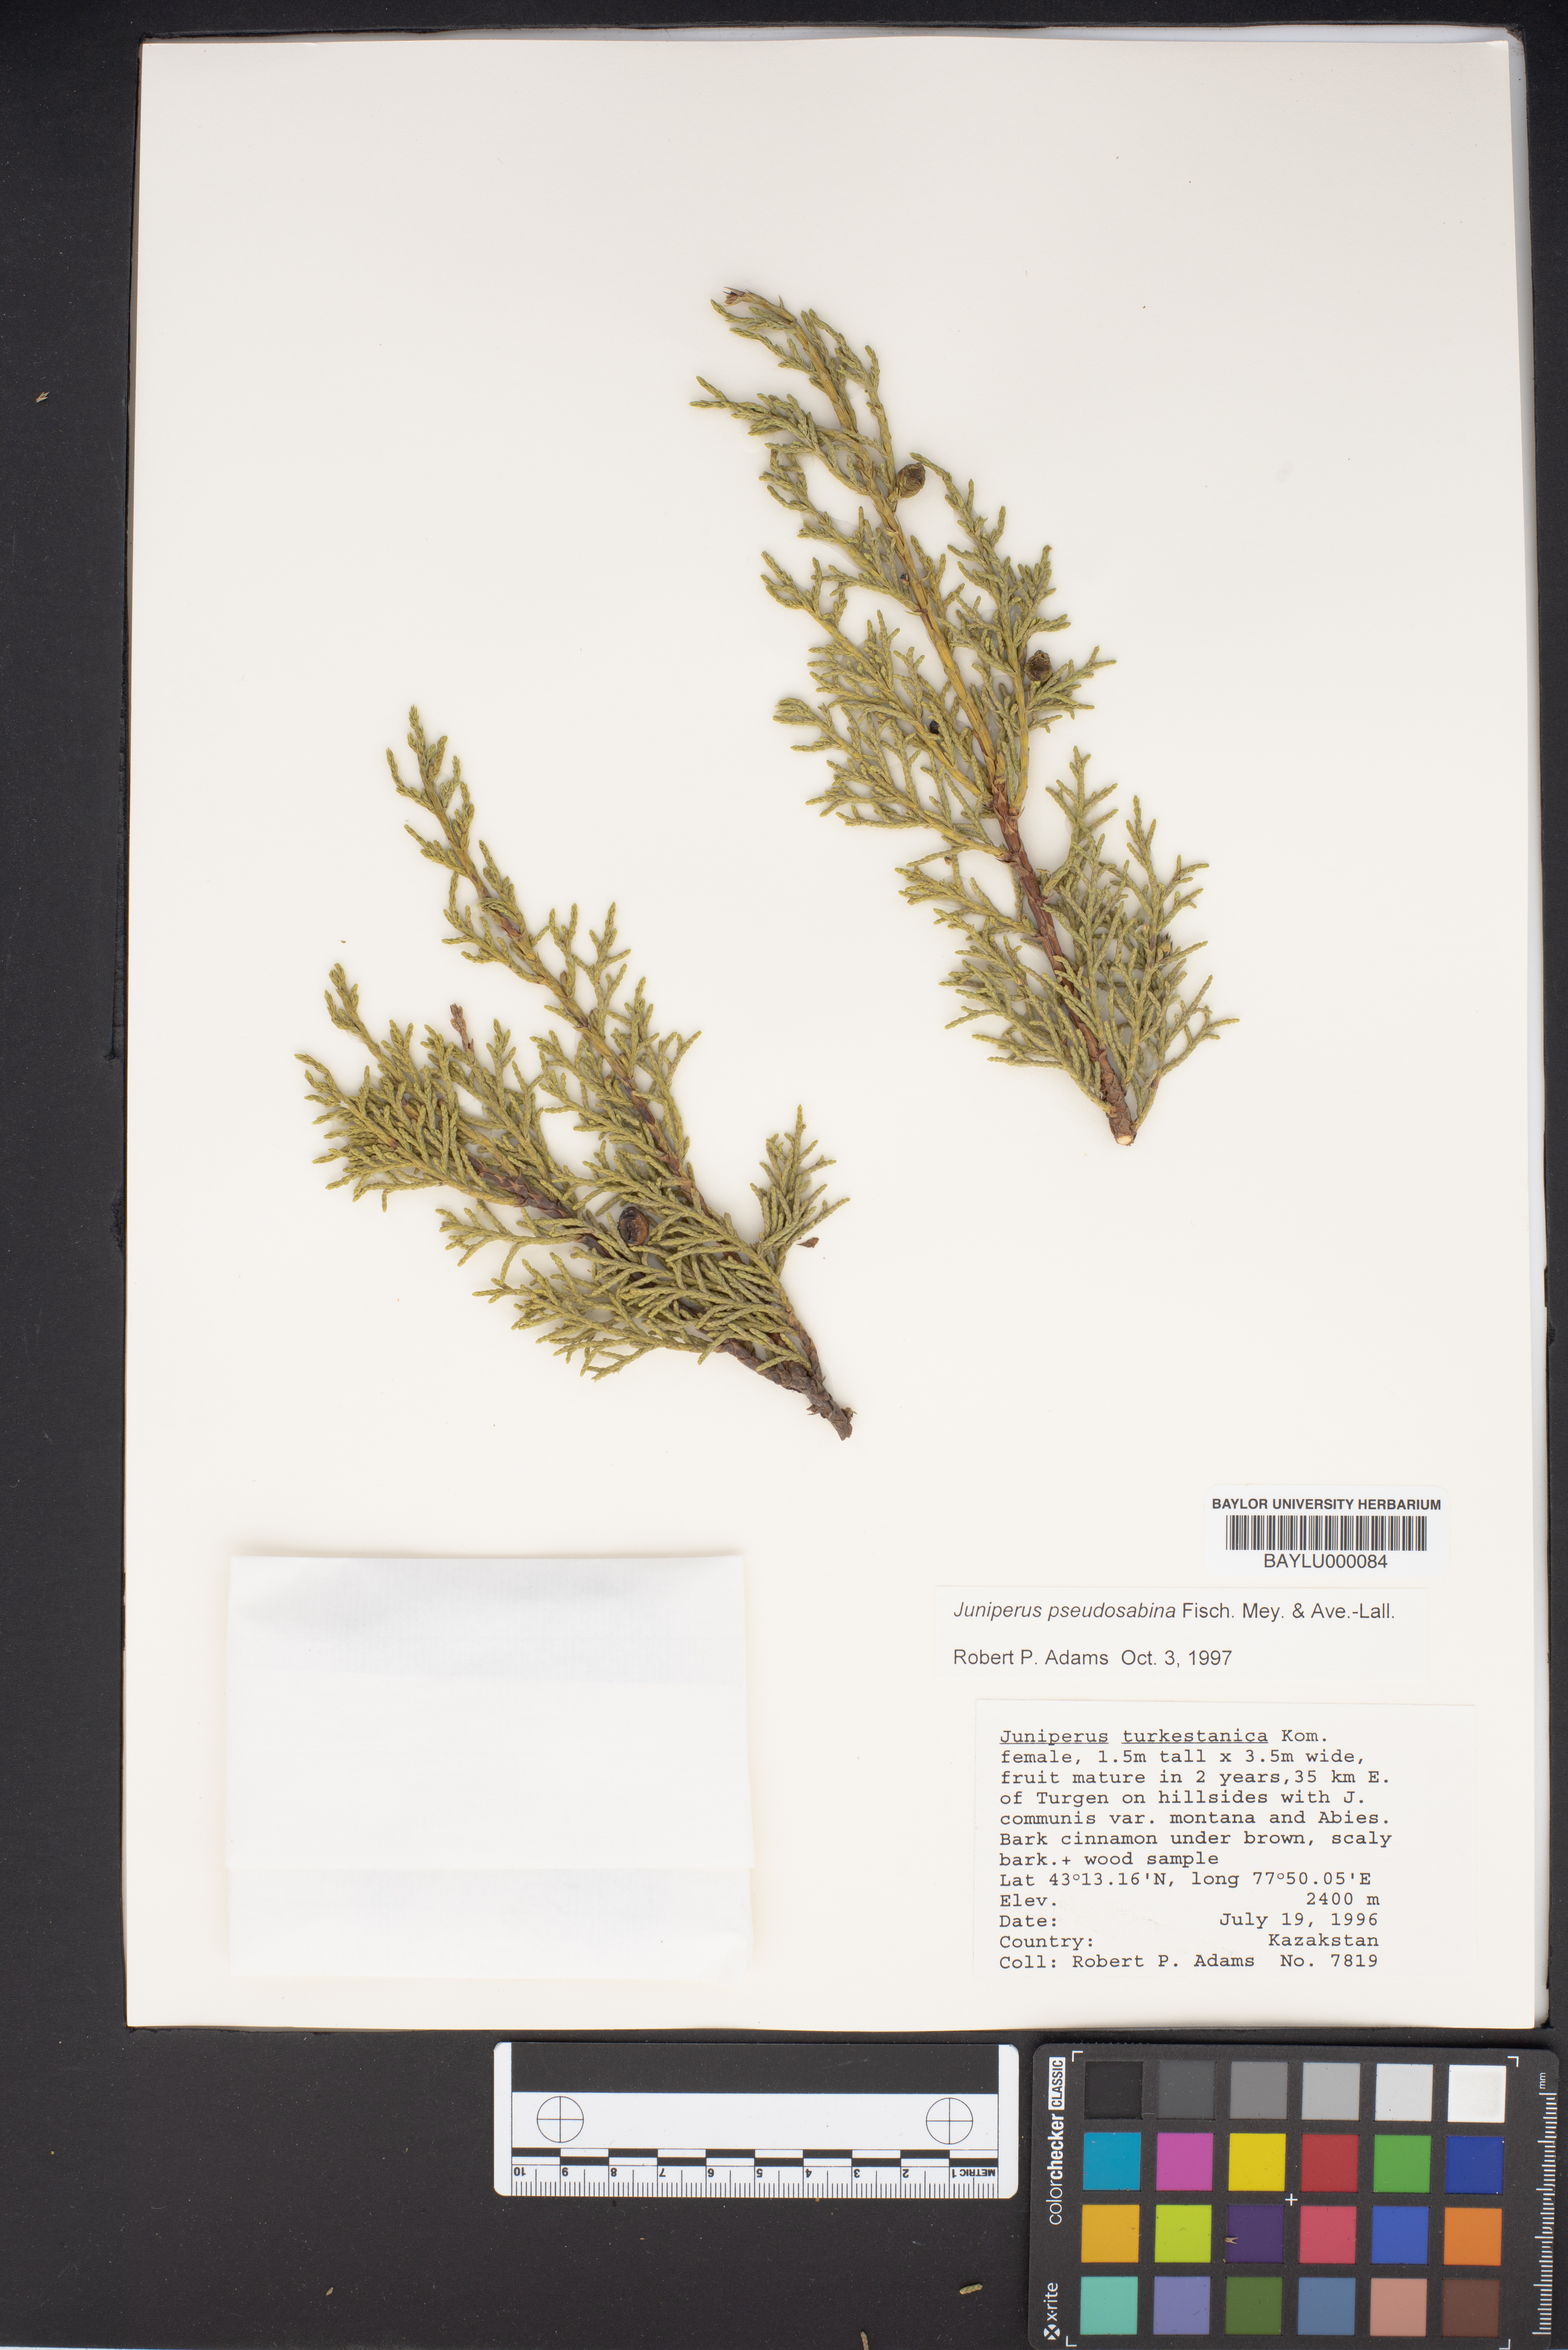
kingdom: Plantae
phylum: Tracheophyta
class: Pinopsida
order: Pinales
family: Cupressaceae
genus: Juniperus
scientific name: Juniperus pseudosabina
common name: Turkestan juniper
